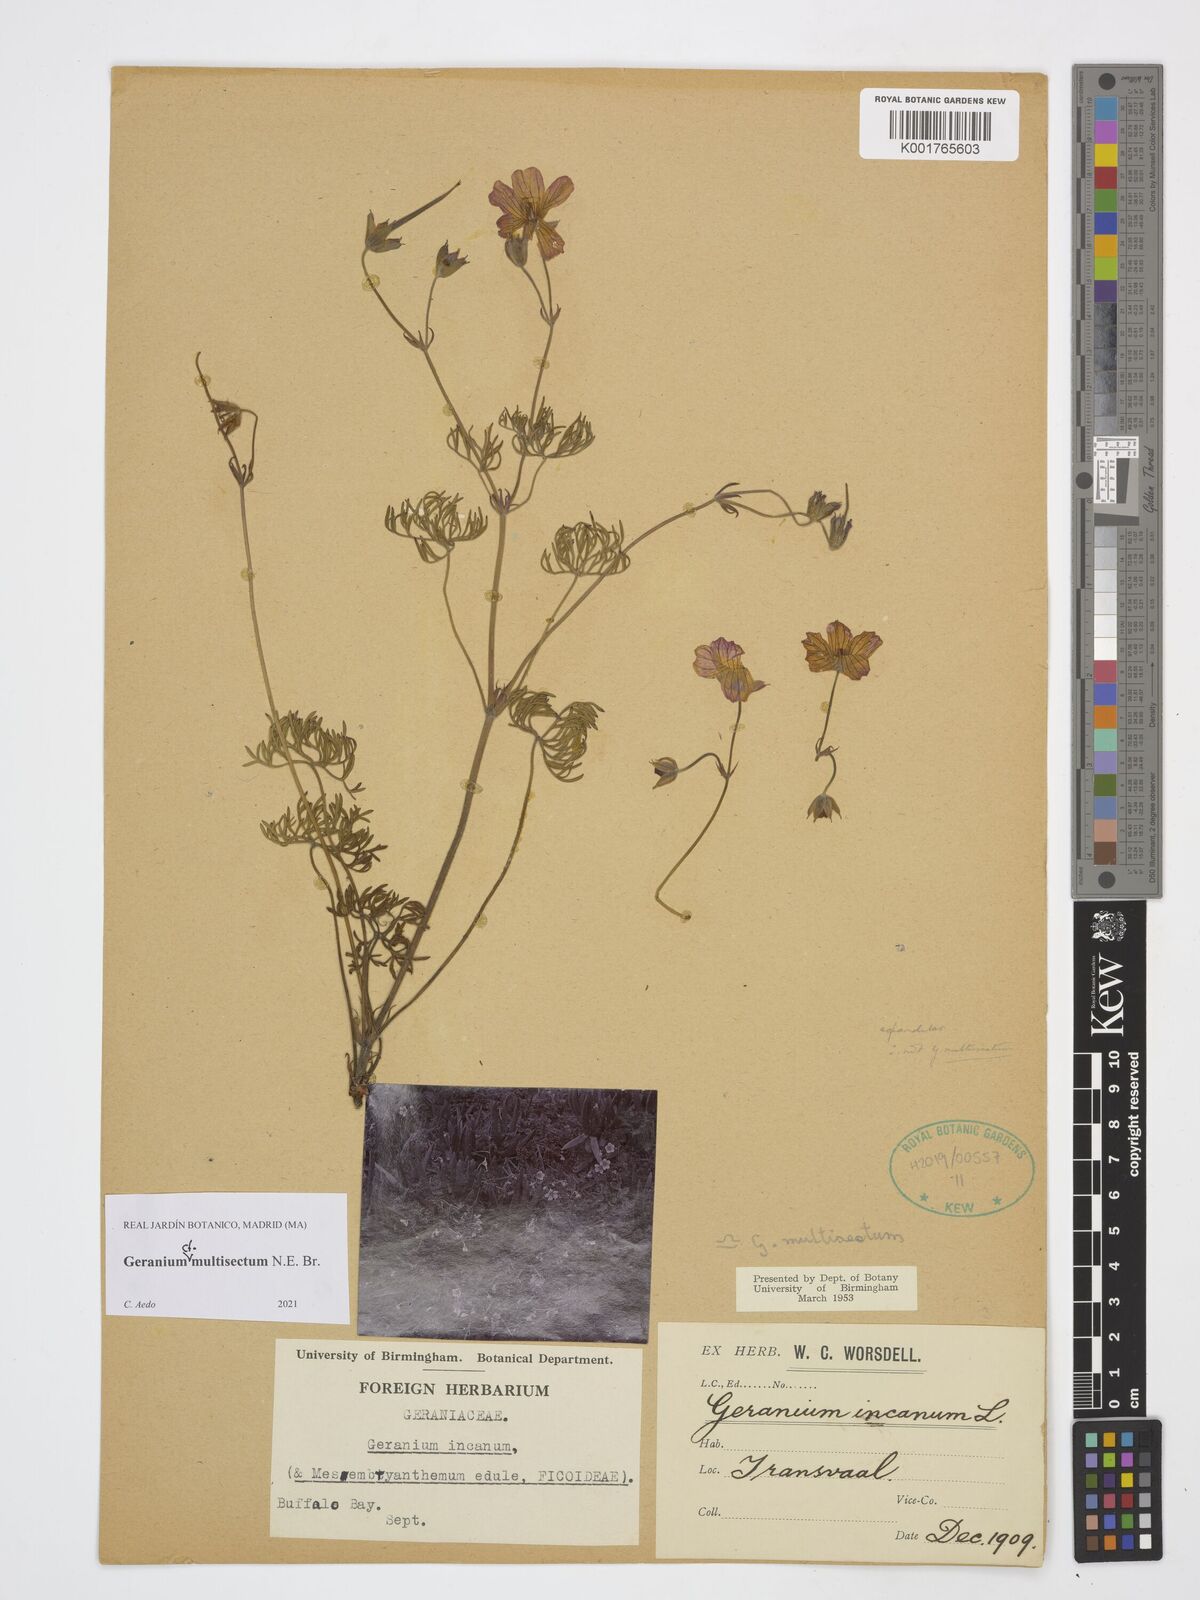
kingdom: Plantae
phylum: Tracheophyta
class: Magnoliopsida
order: Geraniales
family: Geraniaceae
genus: Geranium
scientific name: Geranium multisectum
